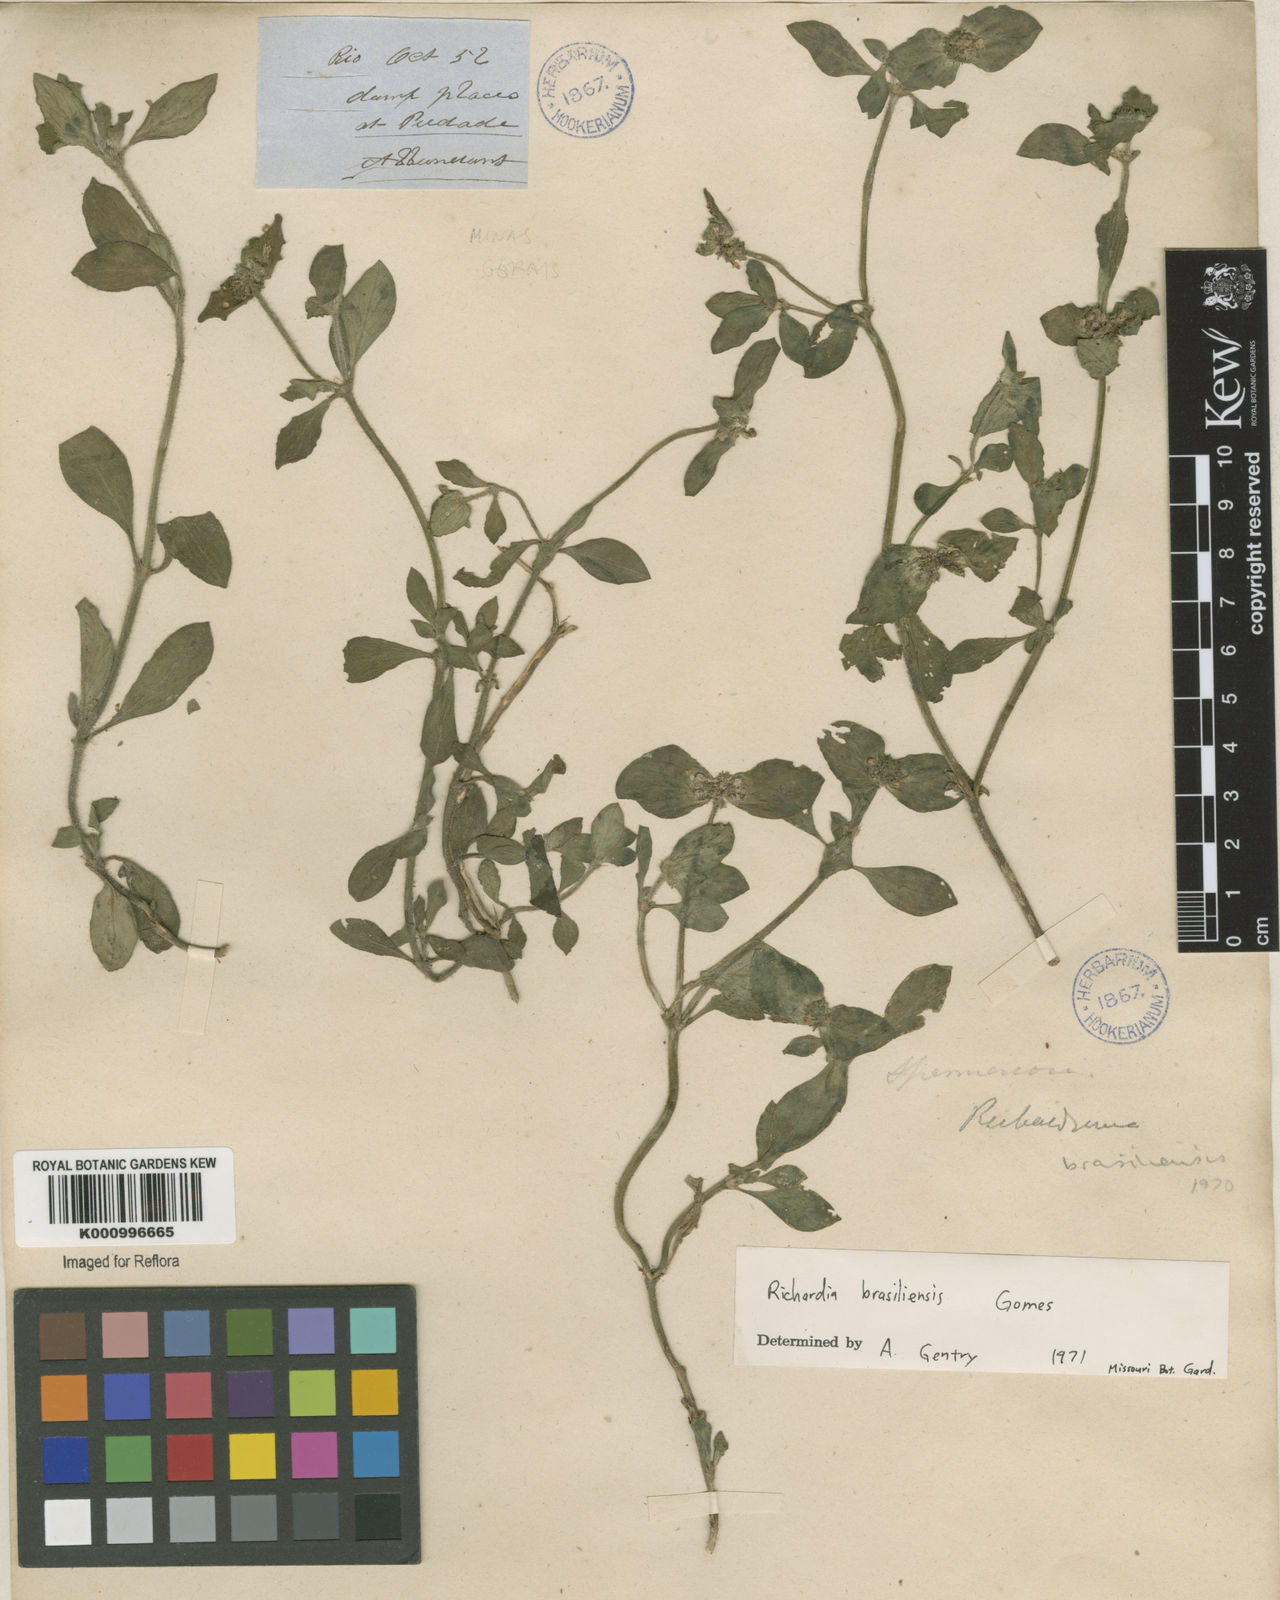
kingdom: Plantae
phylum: Tracheophyta
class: Magnoliopsida
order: Gentianales
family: Rubiaceae
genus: Richardia
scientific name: Richardia brasiliensis
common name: Tropical mexican clover
